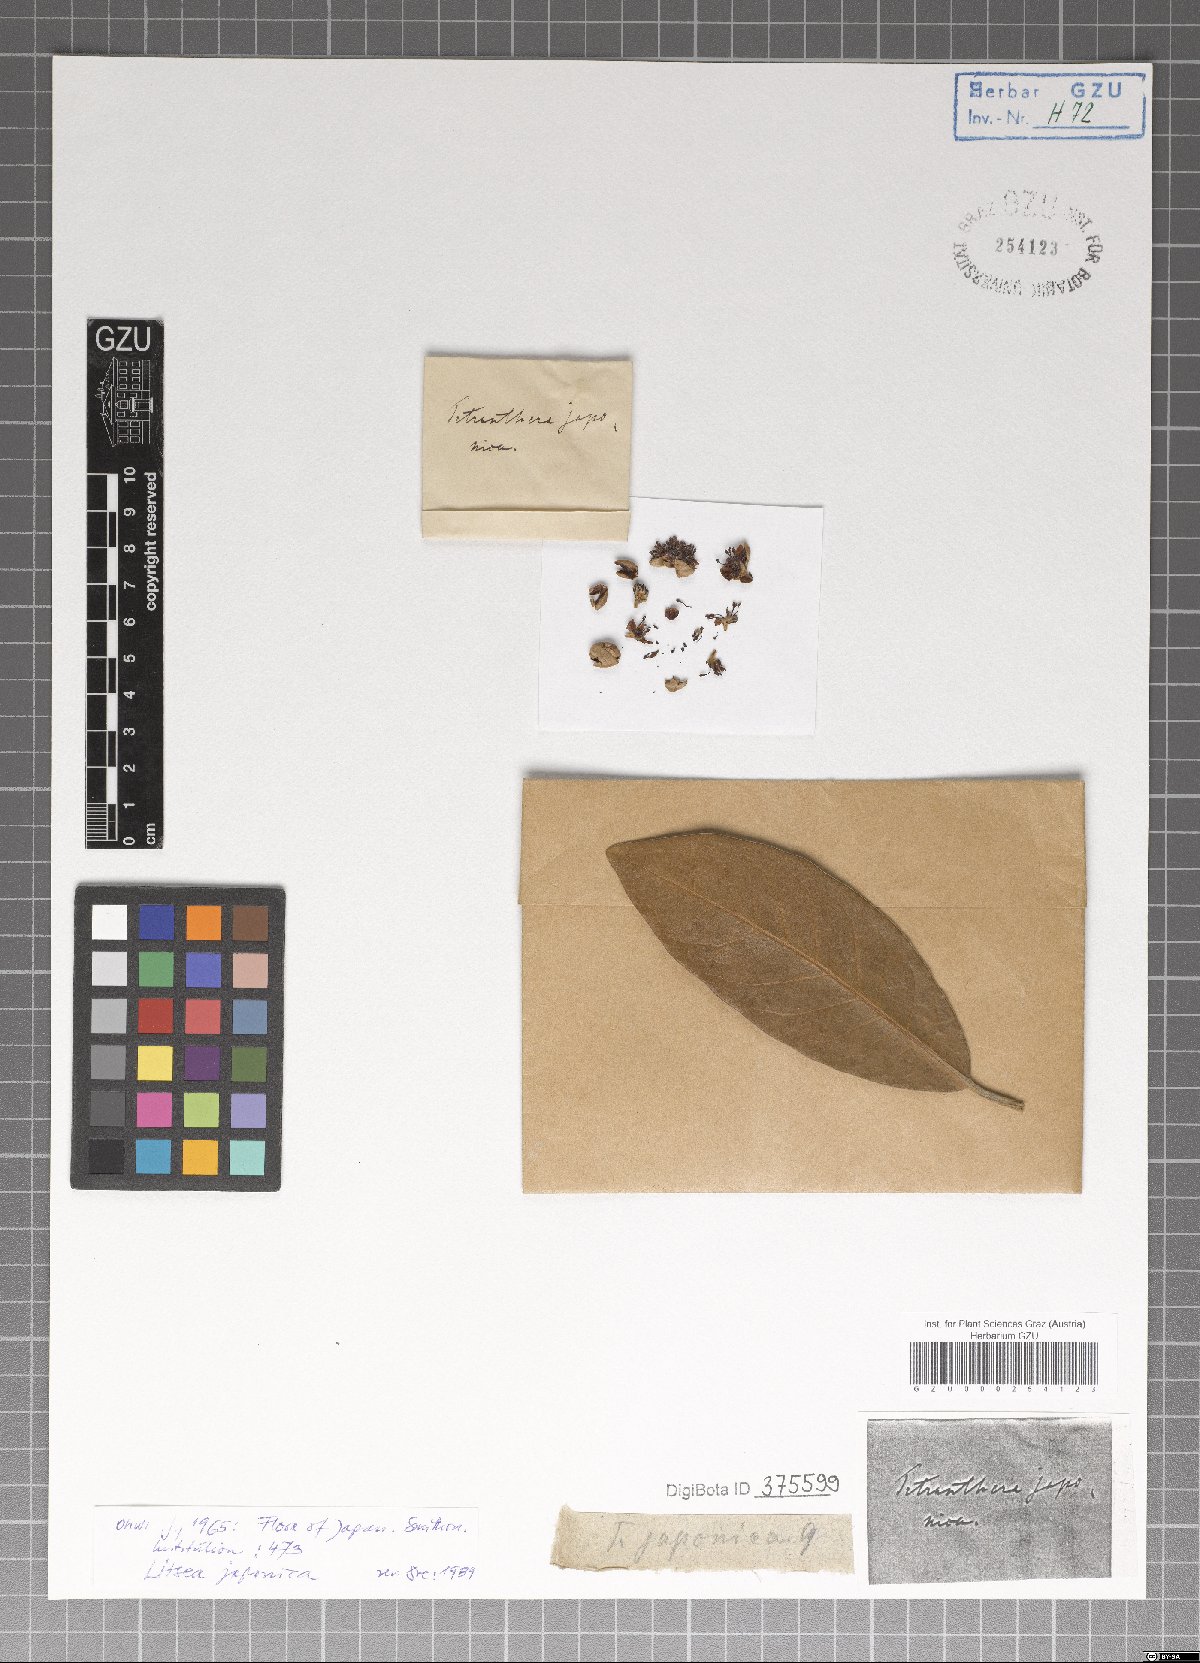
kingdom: Plantae
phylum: Tracheophyta
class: Magnoliopsida
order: Laurales
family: Lauraceae
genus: Litsea
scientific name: Litsea japonica
